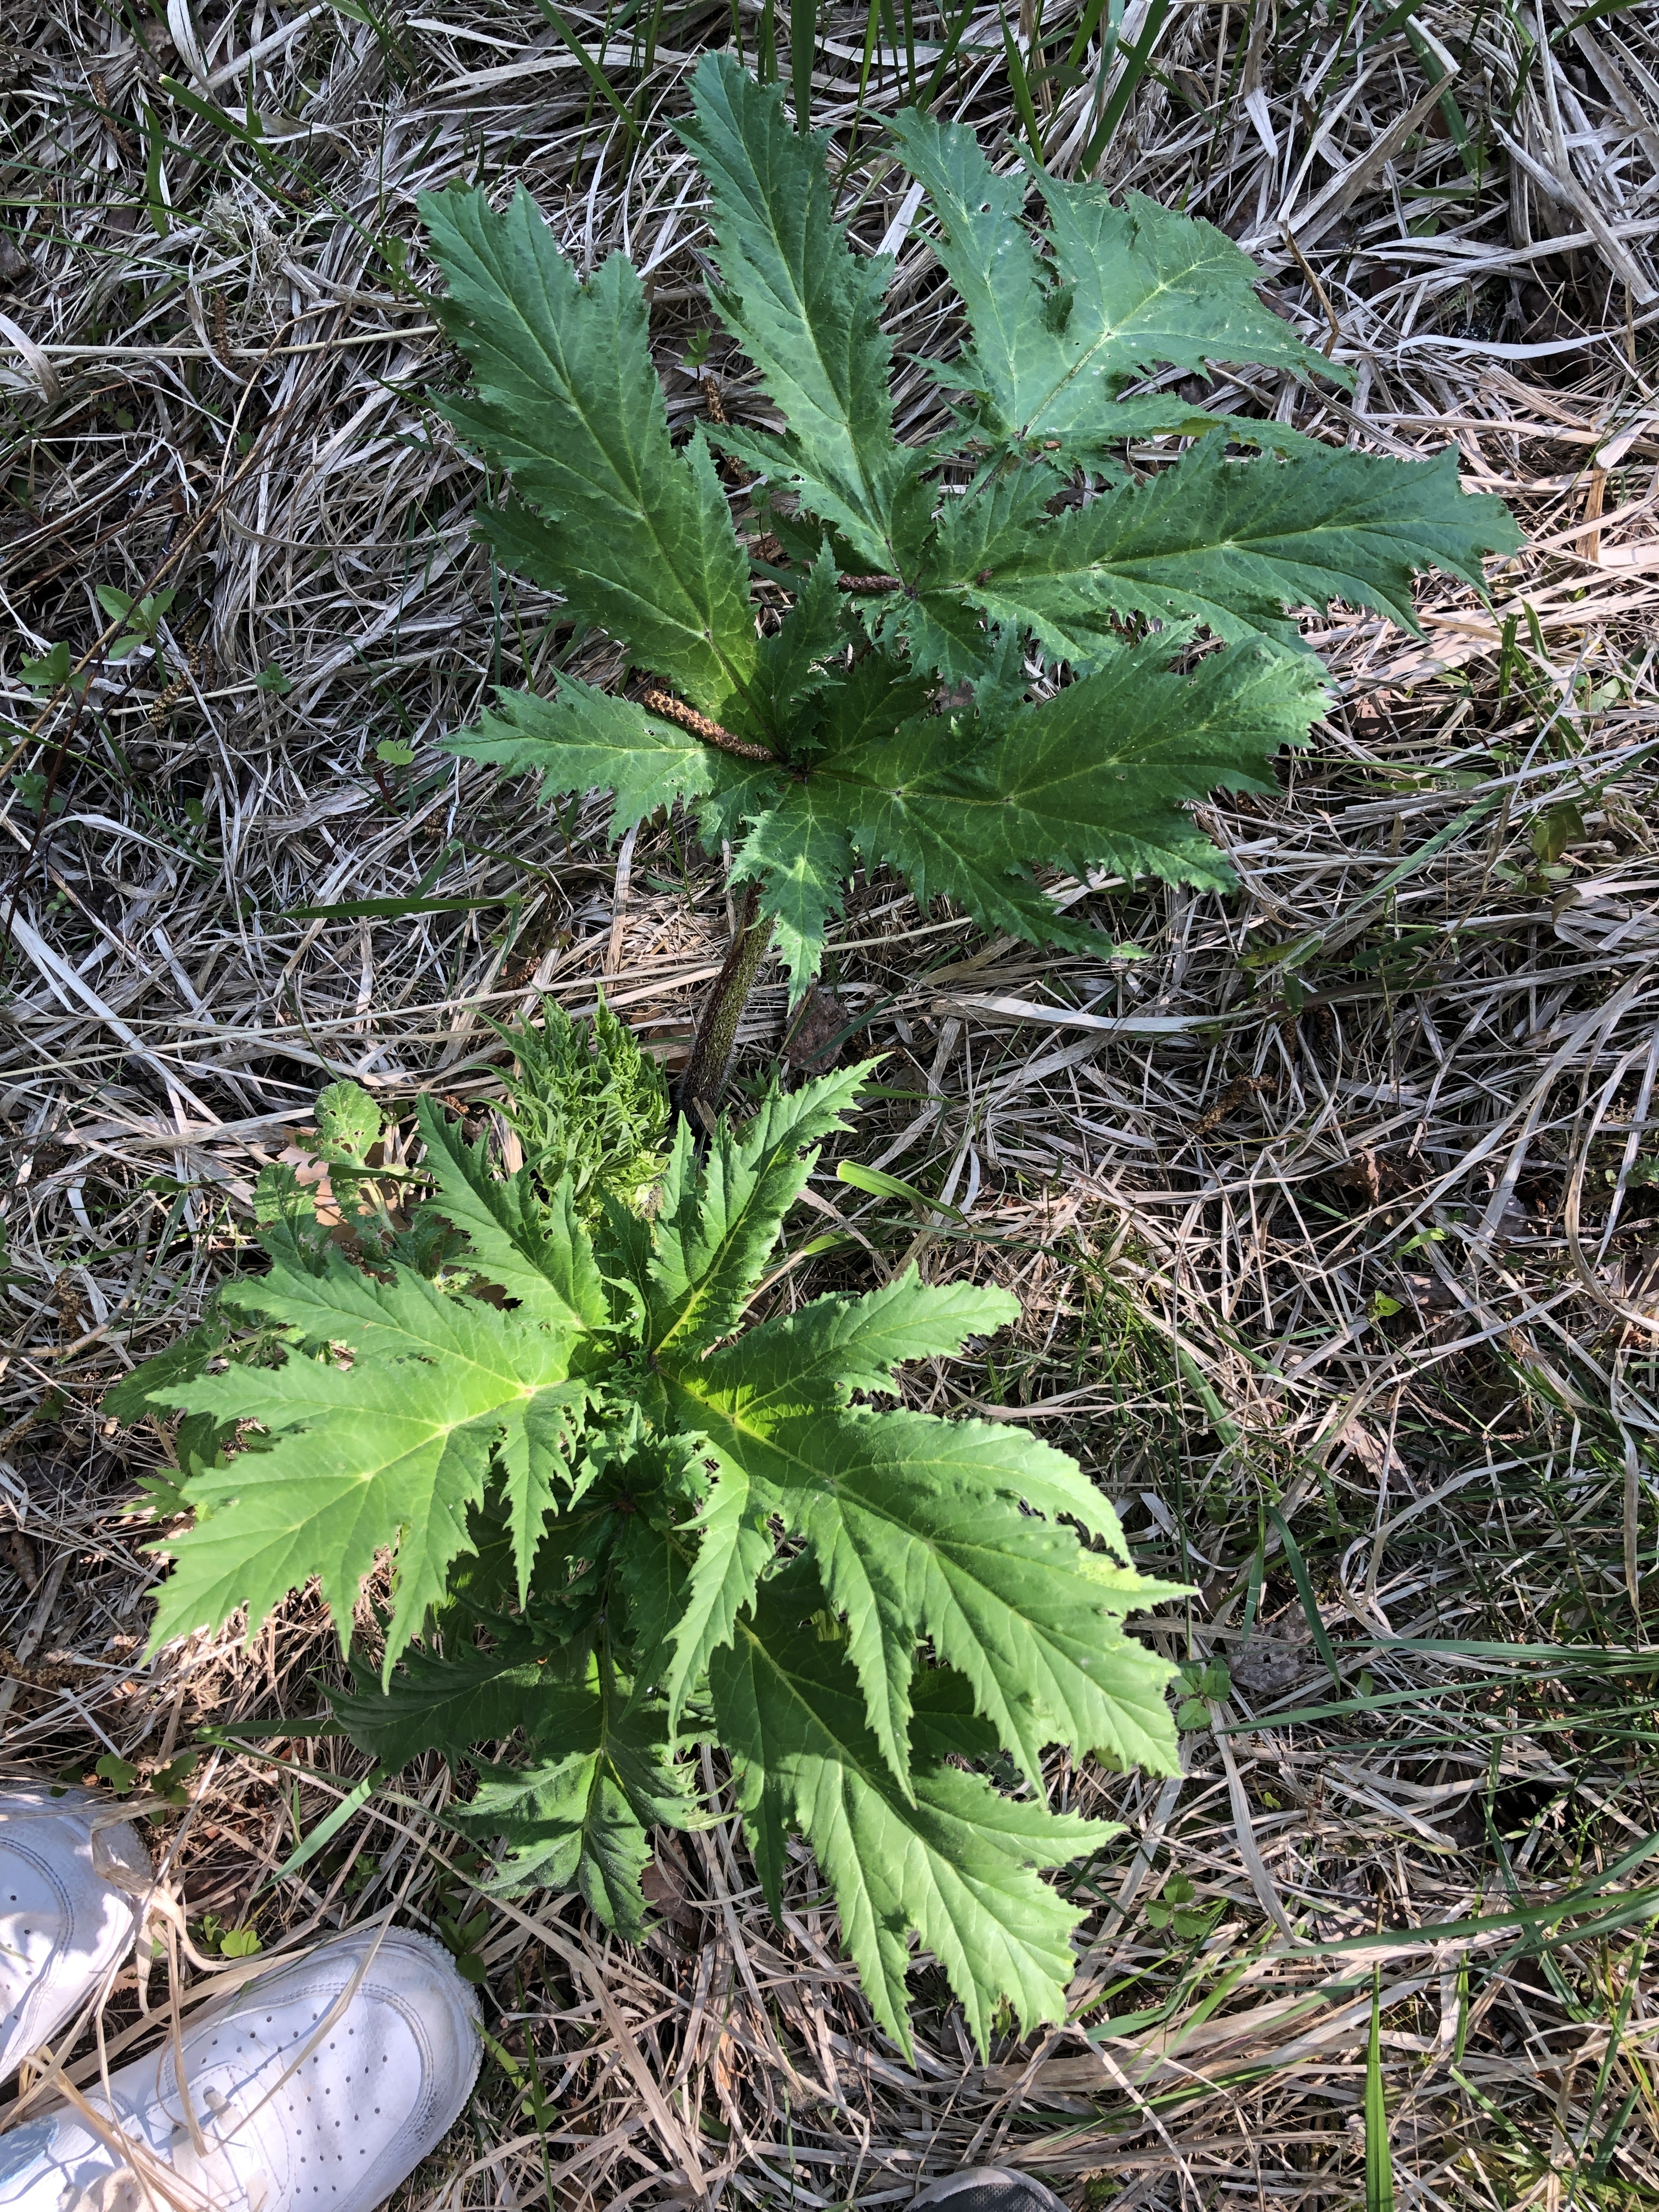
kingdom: Plantae
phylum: Tracheophyta
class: Magnoliopsida
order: Apiales
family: Apiaceae
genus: Heracleum
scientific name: Heracleum mantegazzianum
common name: Giant hogweed
